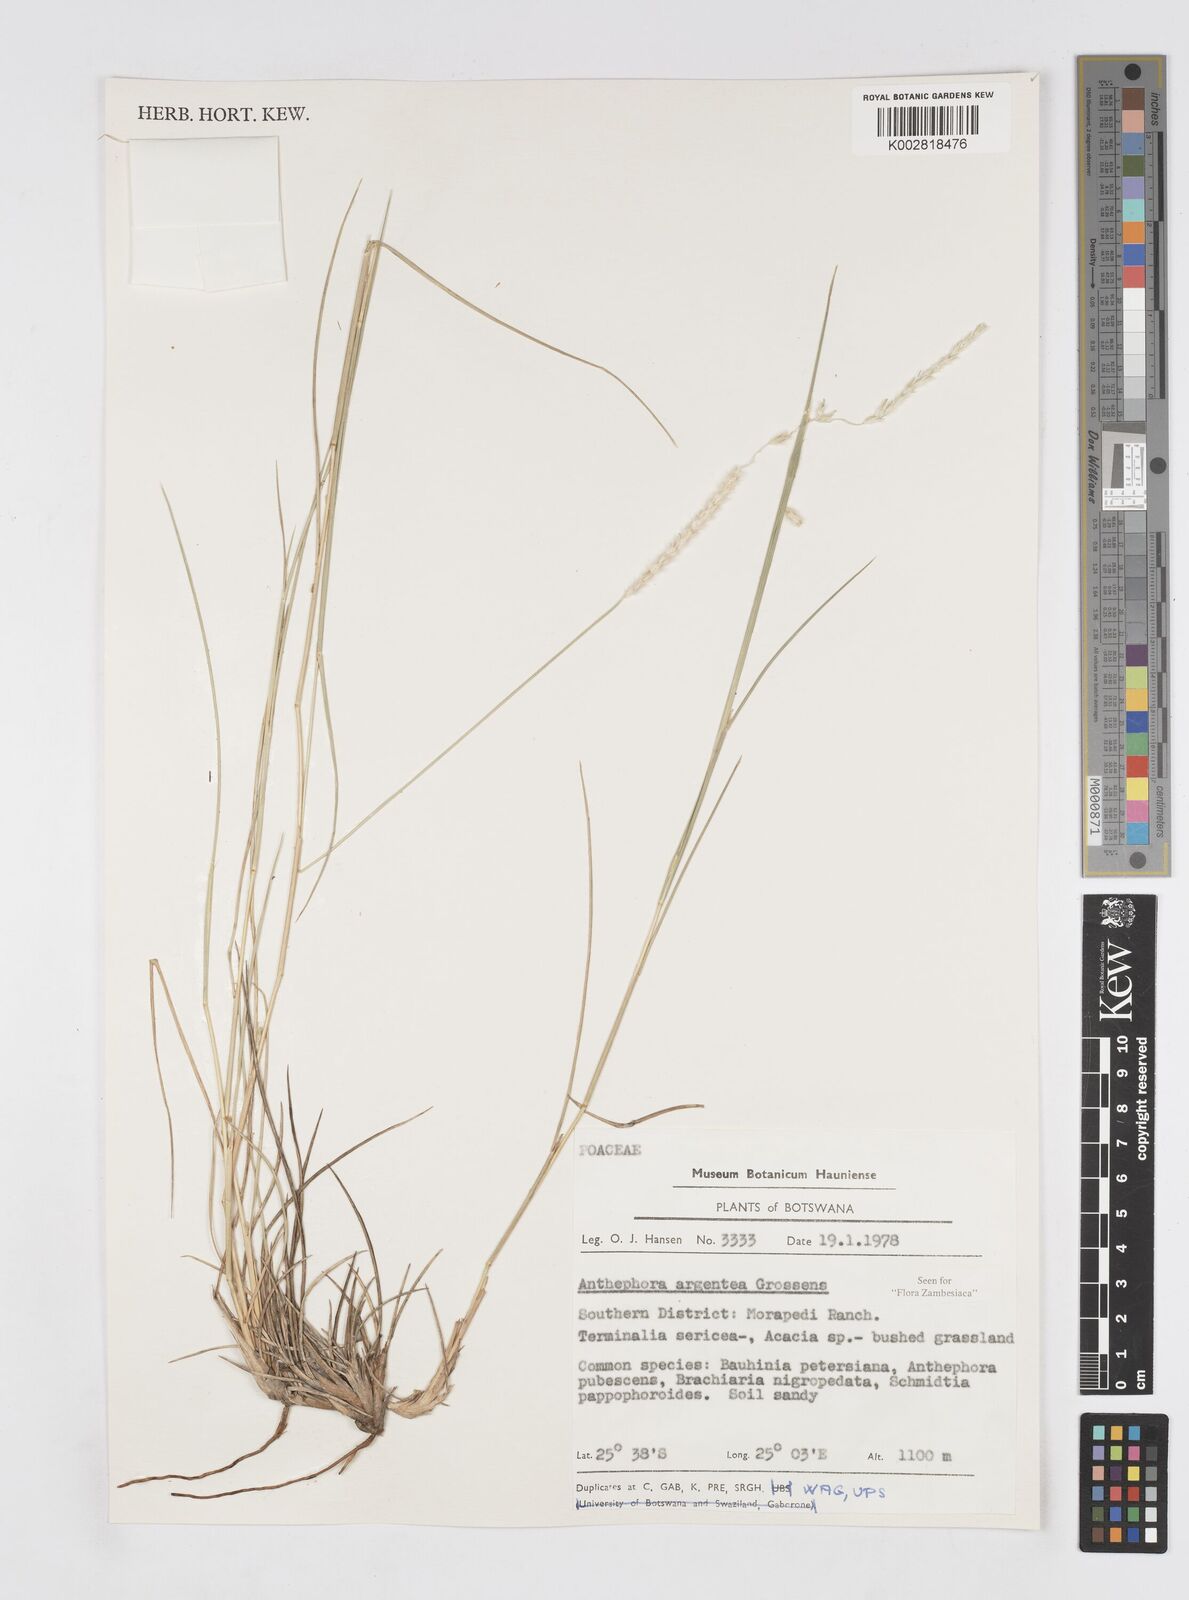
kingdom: Plantae
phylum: Tracheophyta
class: Liliopsida
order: Poales
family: Poaceae
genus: Anthephora
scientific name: Anthephora argentea
